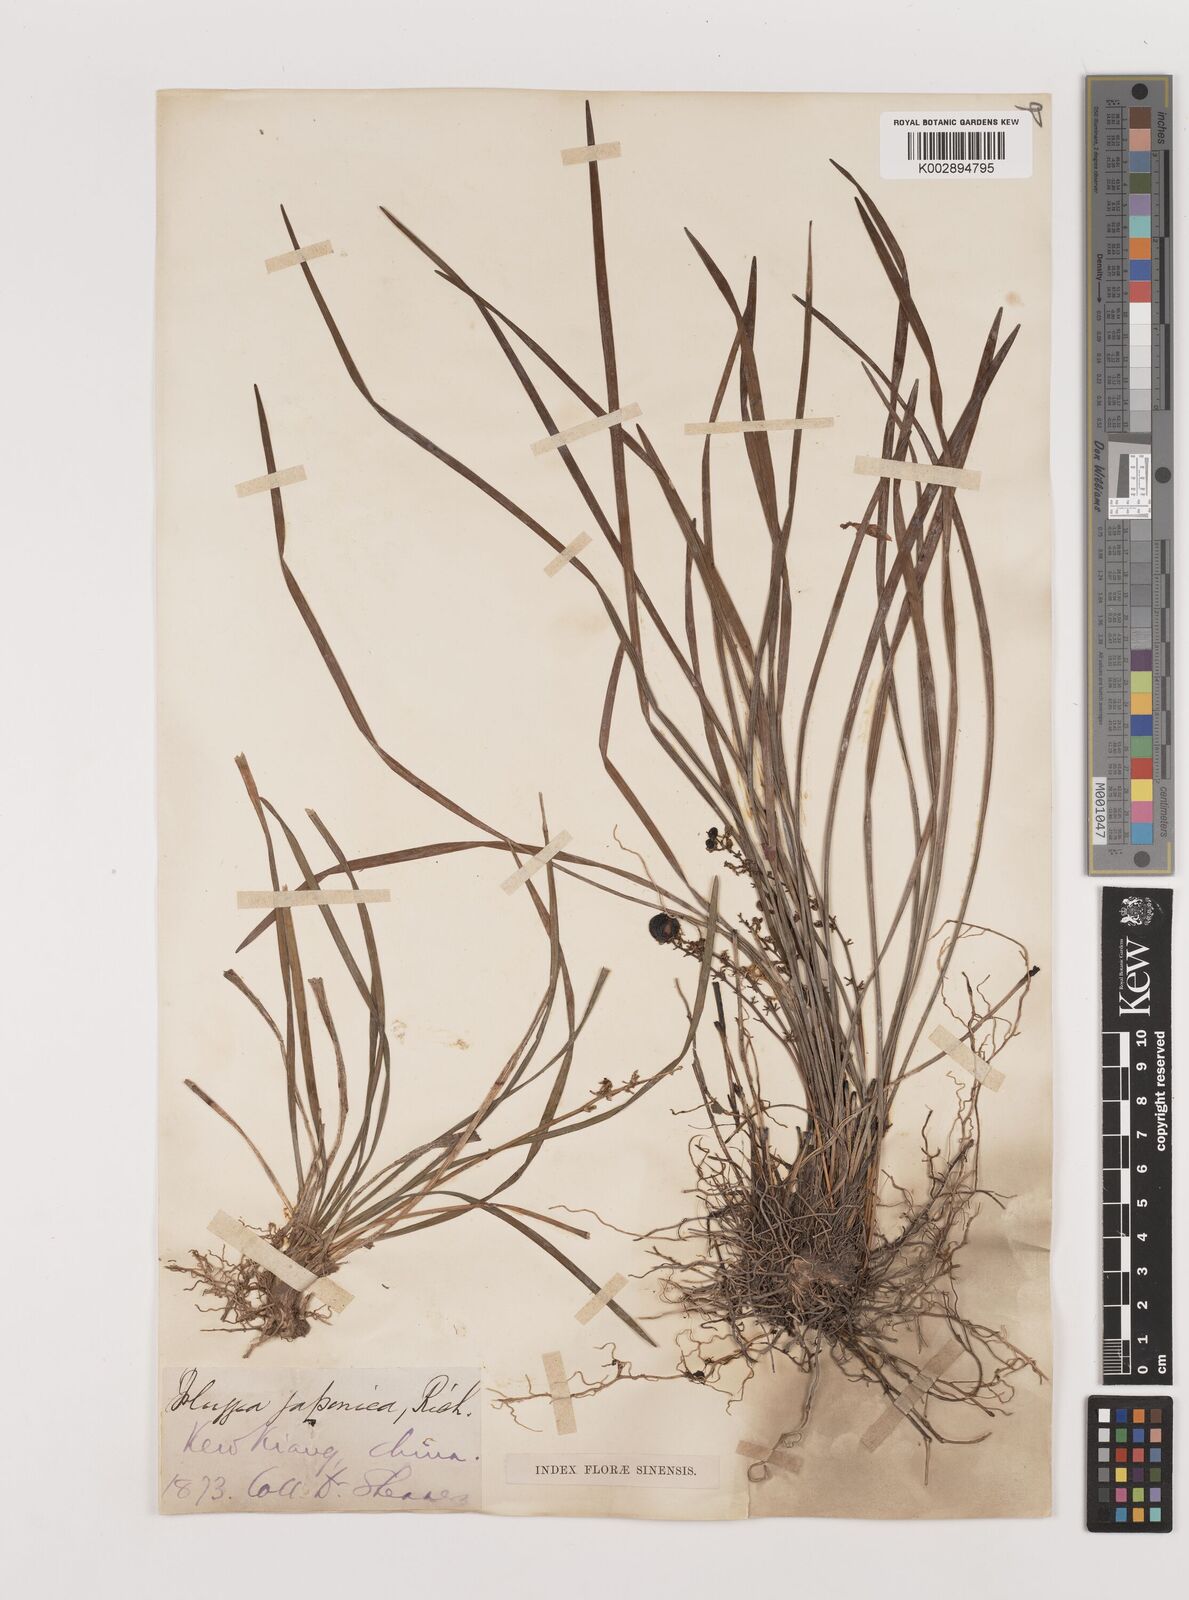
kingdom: Plantae
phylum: Tracheophyta
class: Liliopsida
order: Asparagales
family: Asparagaceae
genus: Ophiopogon
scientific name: Ophiopogon japonicus
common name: Dwarf lilyturf
